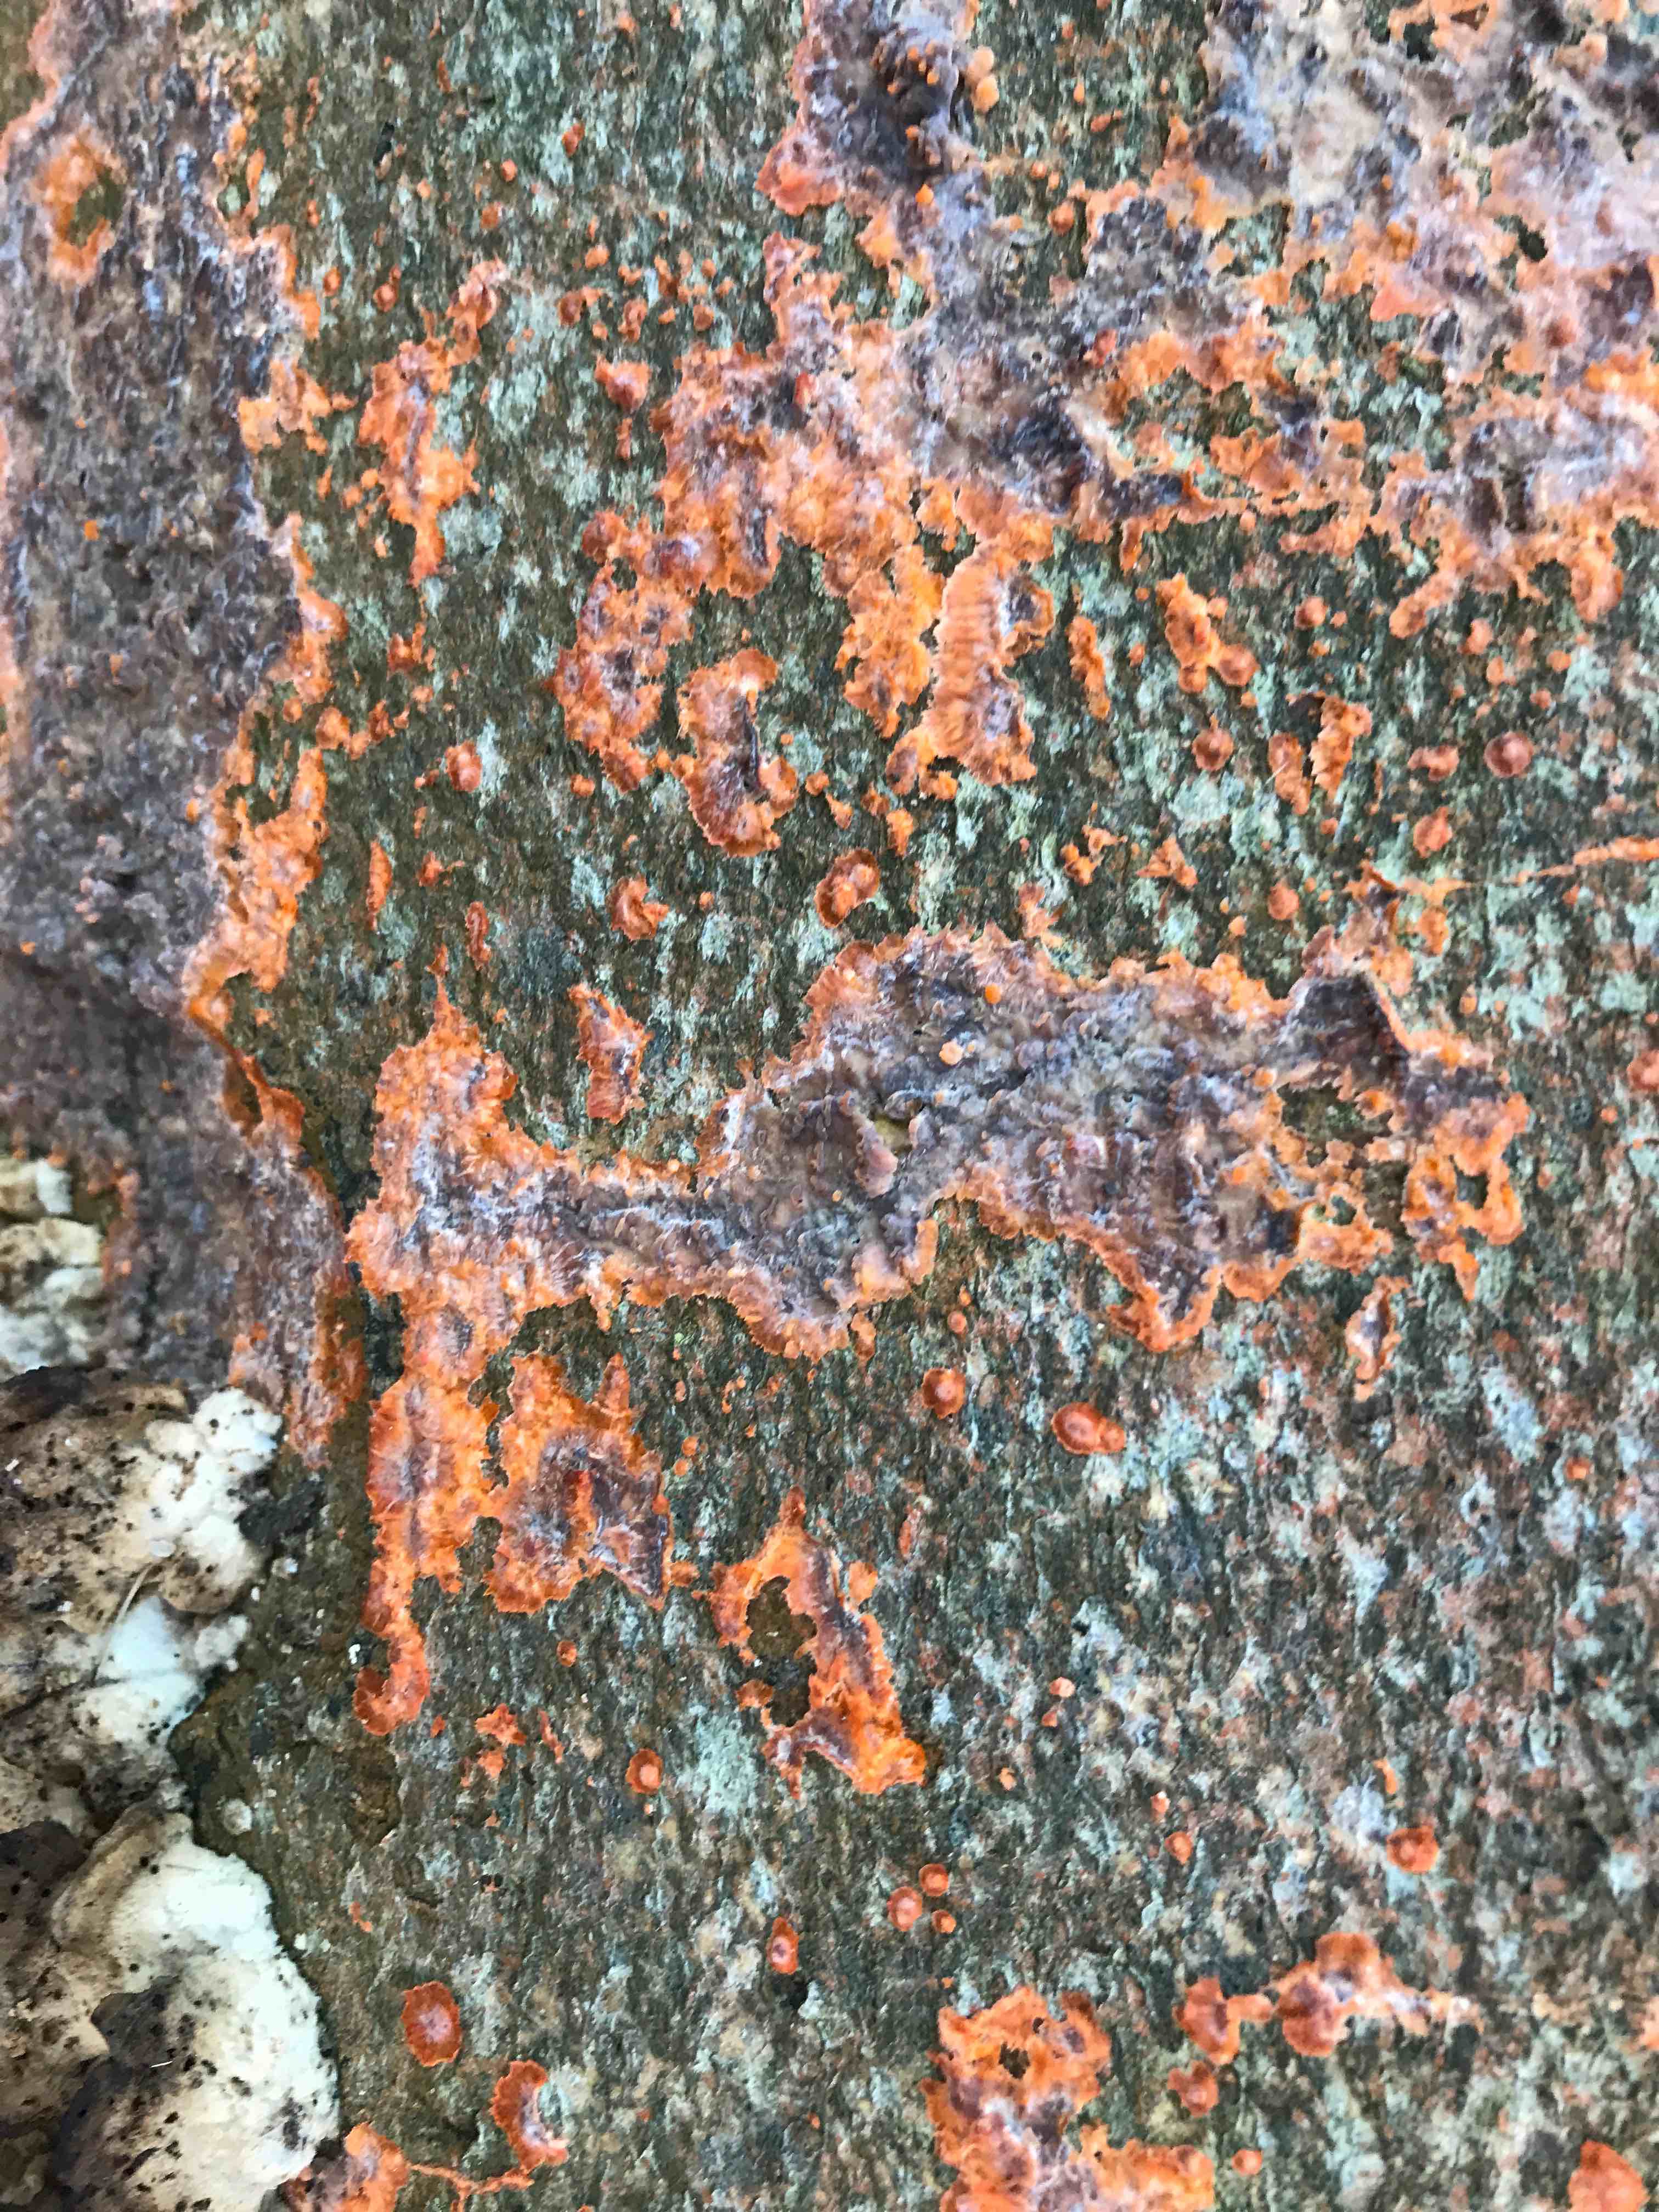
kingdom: Fungi
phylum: Basidiomycota
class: Agaricomycetes
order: Polyporales
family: Meruliaceae
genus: Phlebia
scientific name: Phlebia radiata
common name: stråle-åresvamp
